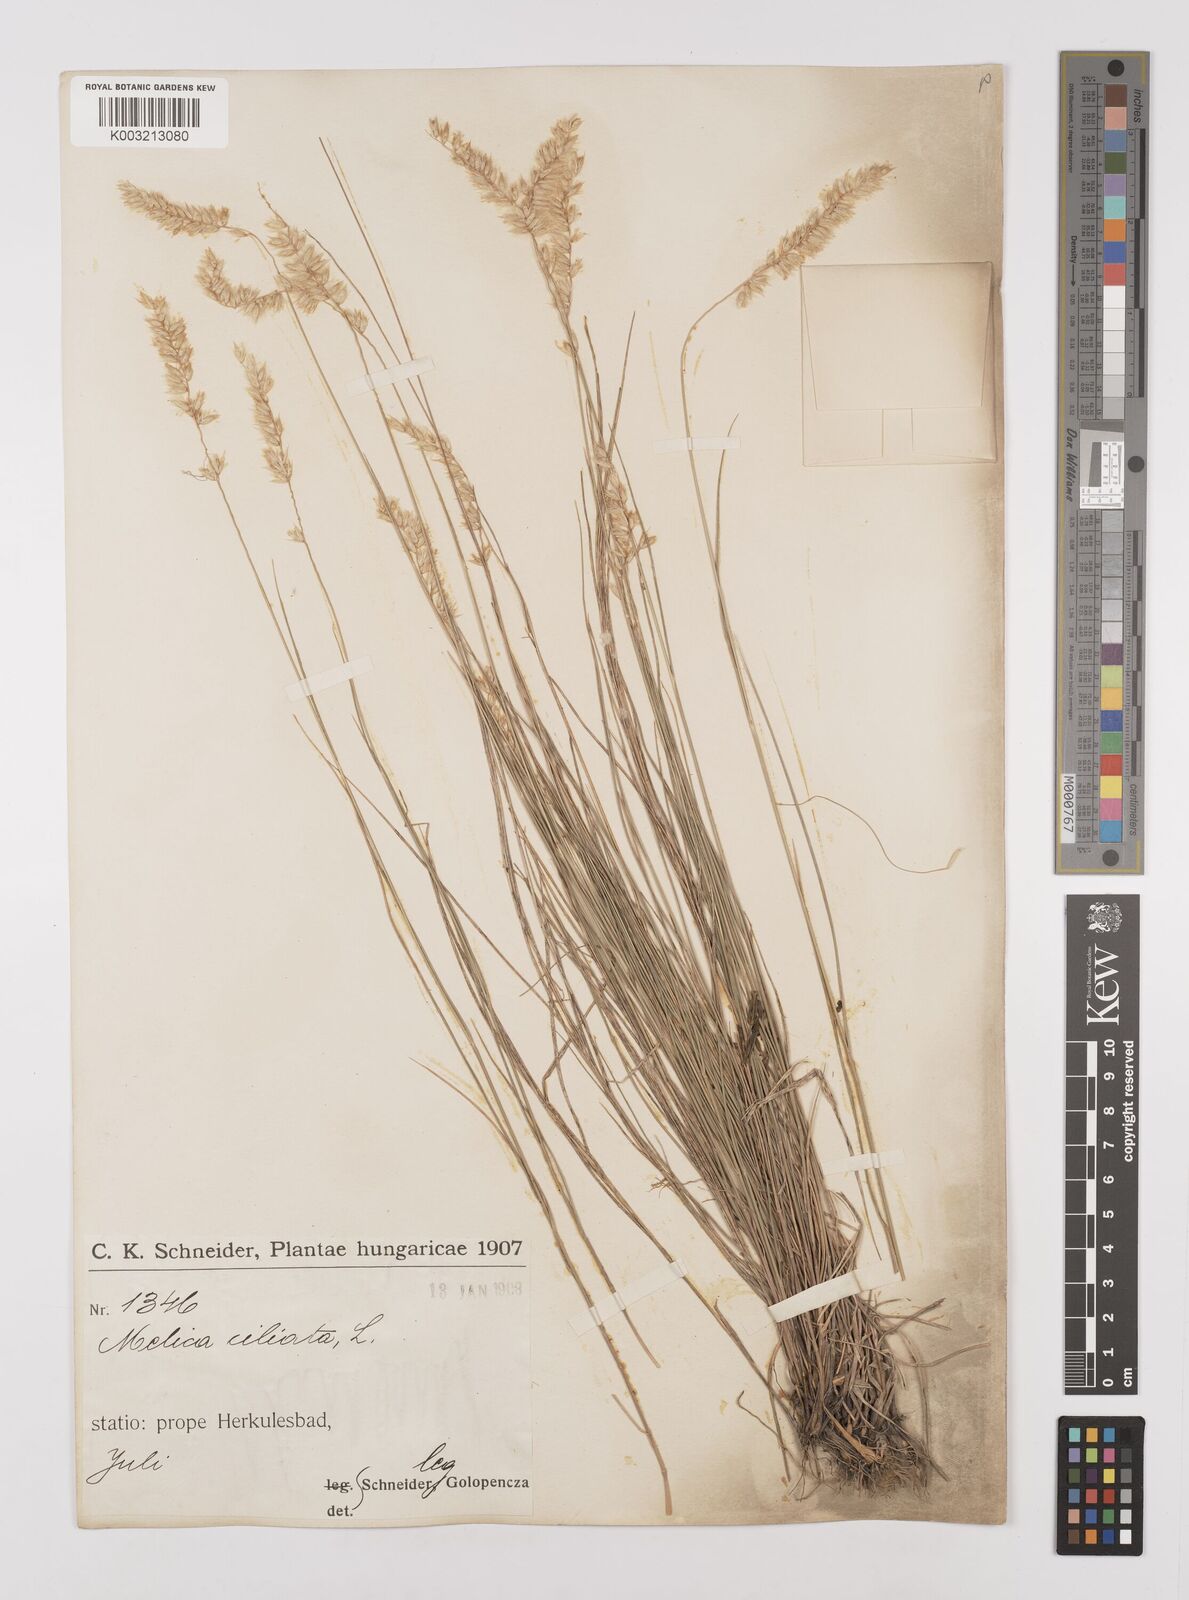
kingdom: Plantae
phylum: Tracheophyta
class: Liliopsida
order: Poales
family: Poaceae
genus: Melica
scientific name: Melica ciliata
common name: Hairy melicgrass
